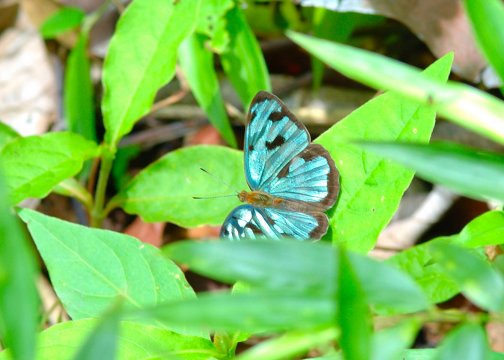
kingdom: Animalia
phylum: Arthropoda
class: Insecta
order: Lepidoptera
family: Nymphalidae
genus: Dynamine
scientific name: Dynamine mylitta
